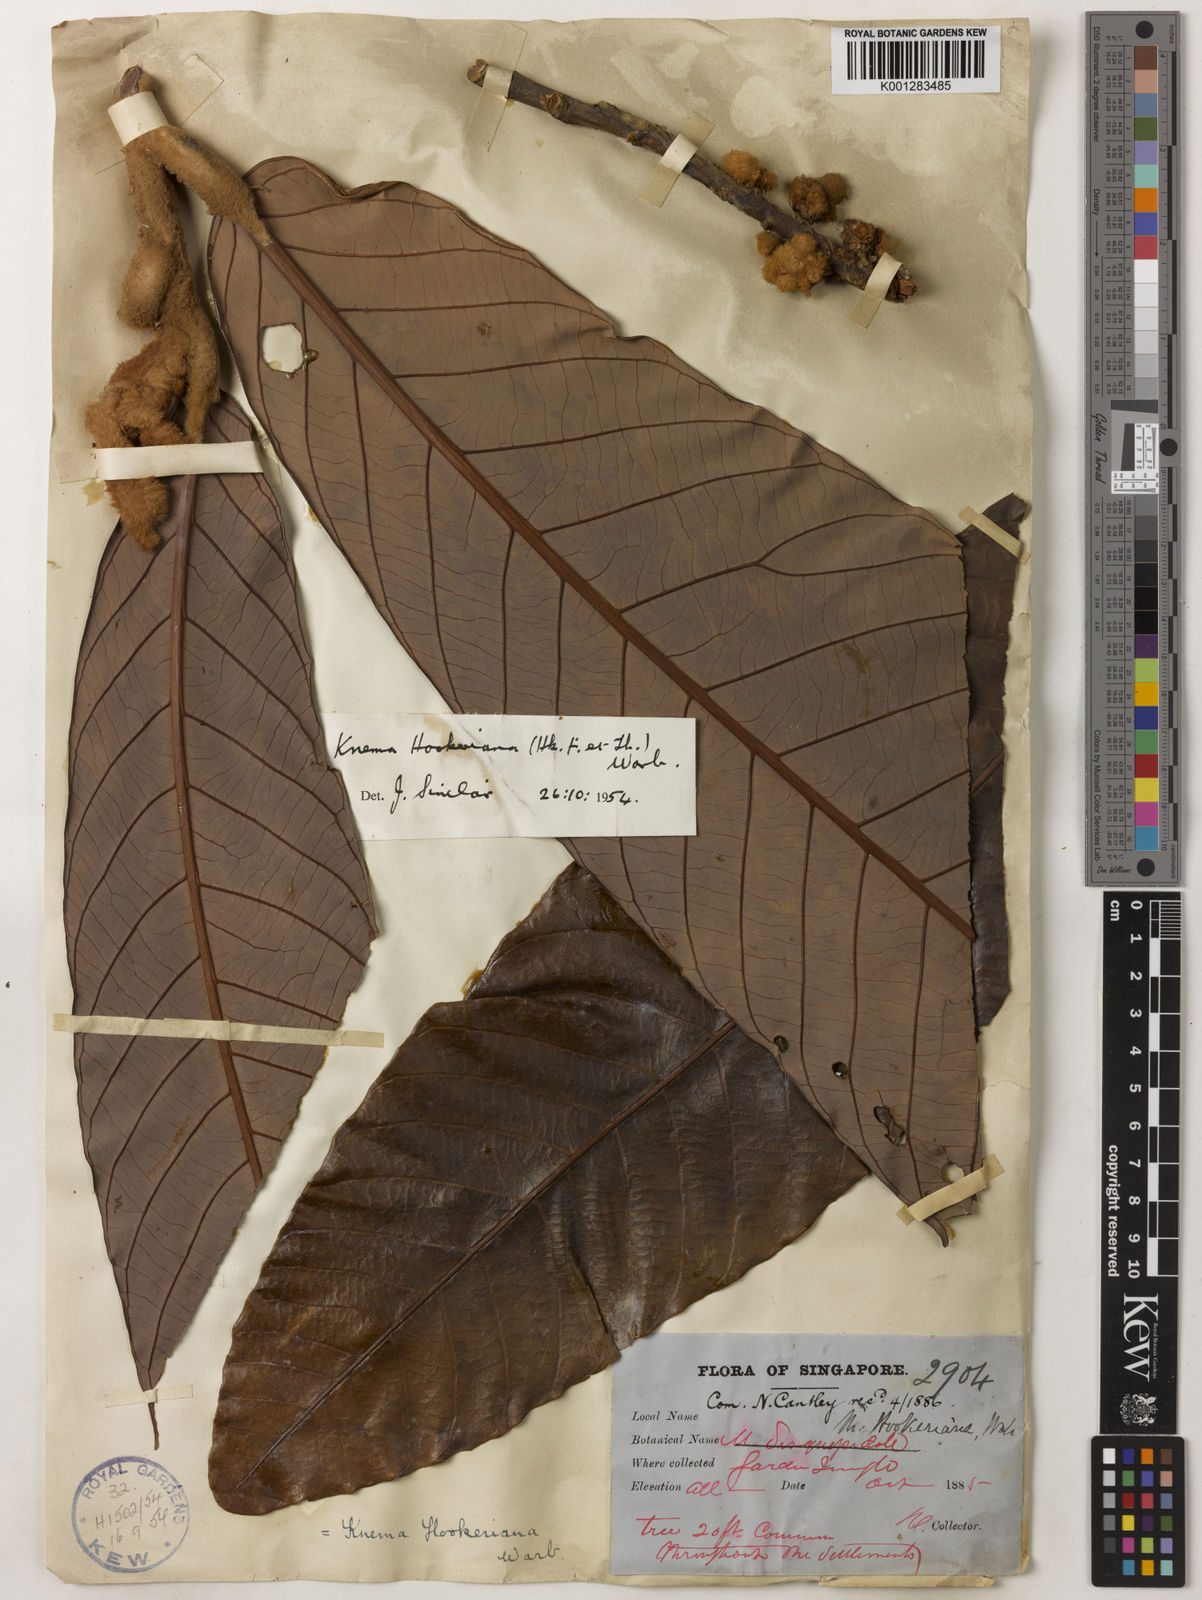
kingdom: Plantae
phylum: Tracheophyta
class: Magnoliopsida
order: Magnoliales
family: Myristicaceae
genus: Knema
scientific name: Knema hookeriana
